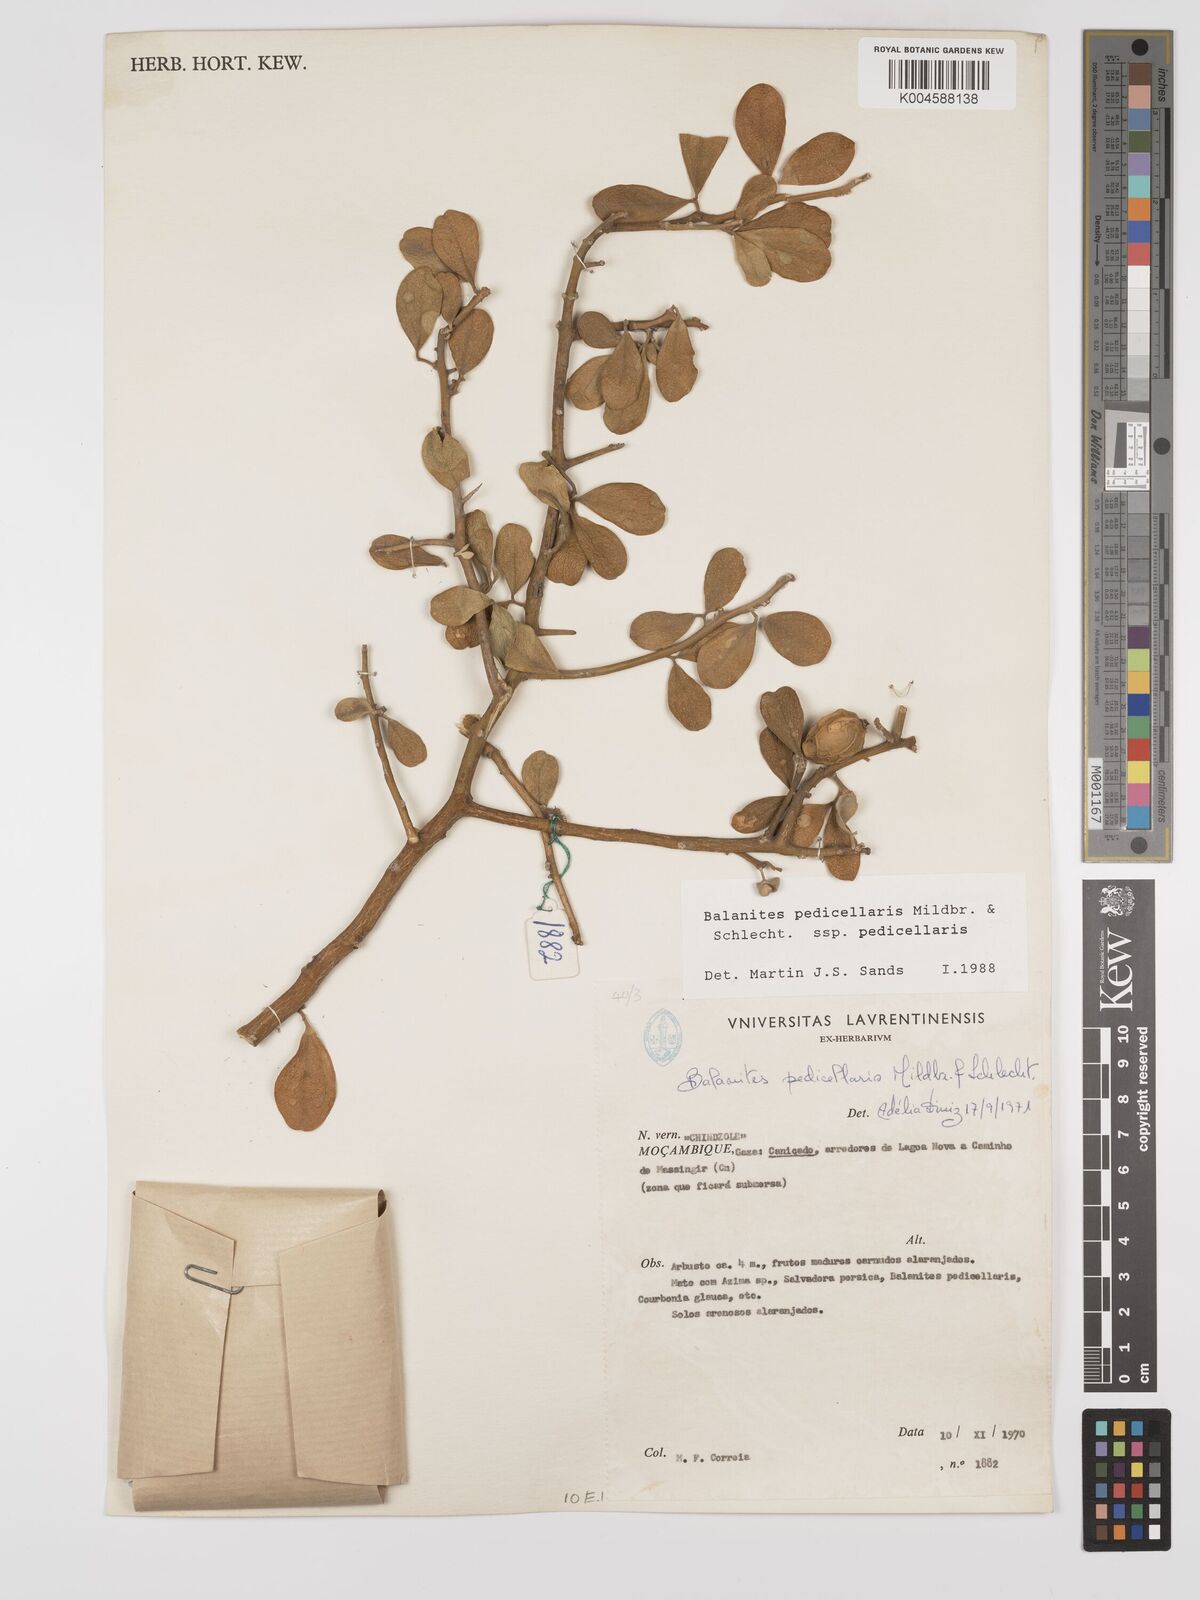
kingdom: Plantae
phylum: Tracheophyta
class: Magnoliopsida
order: Zygophyllales
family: Zygophyllaceae
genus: Balanites
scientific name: Balanites pedicellaris
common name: Small green-thorn
